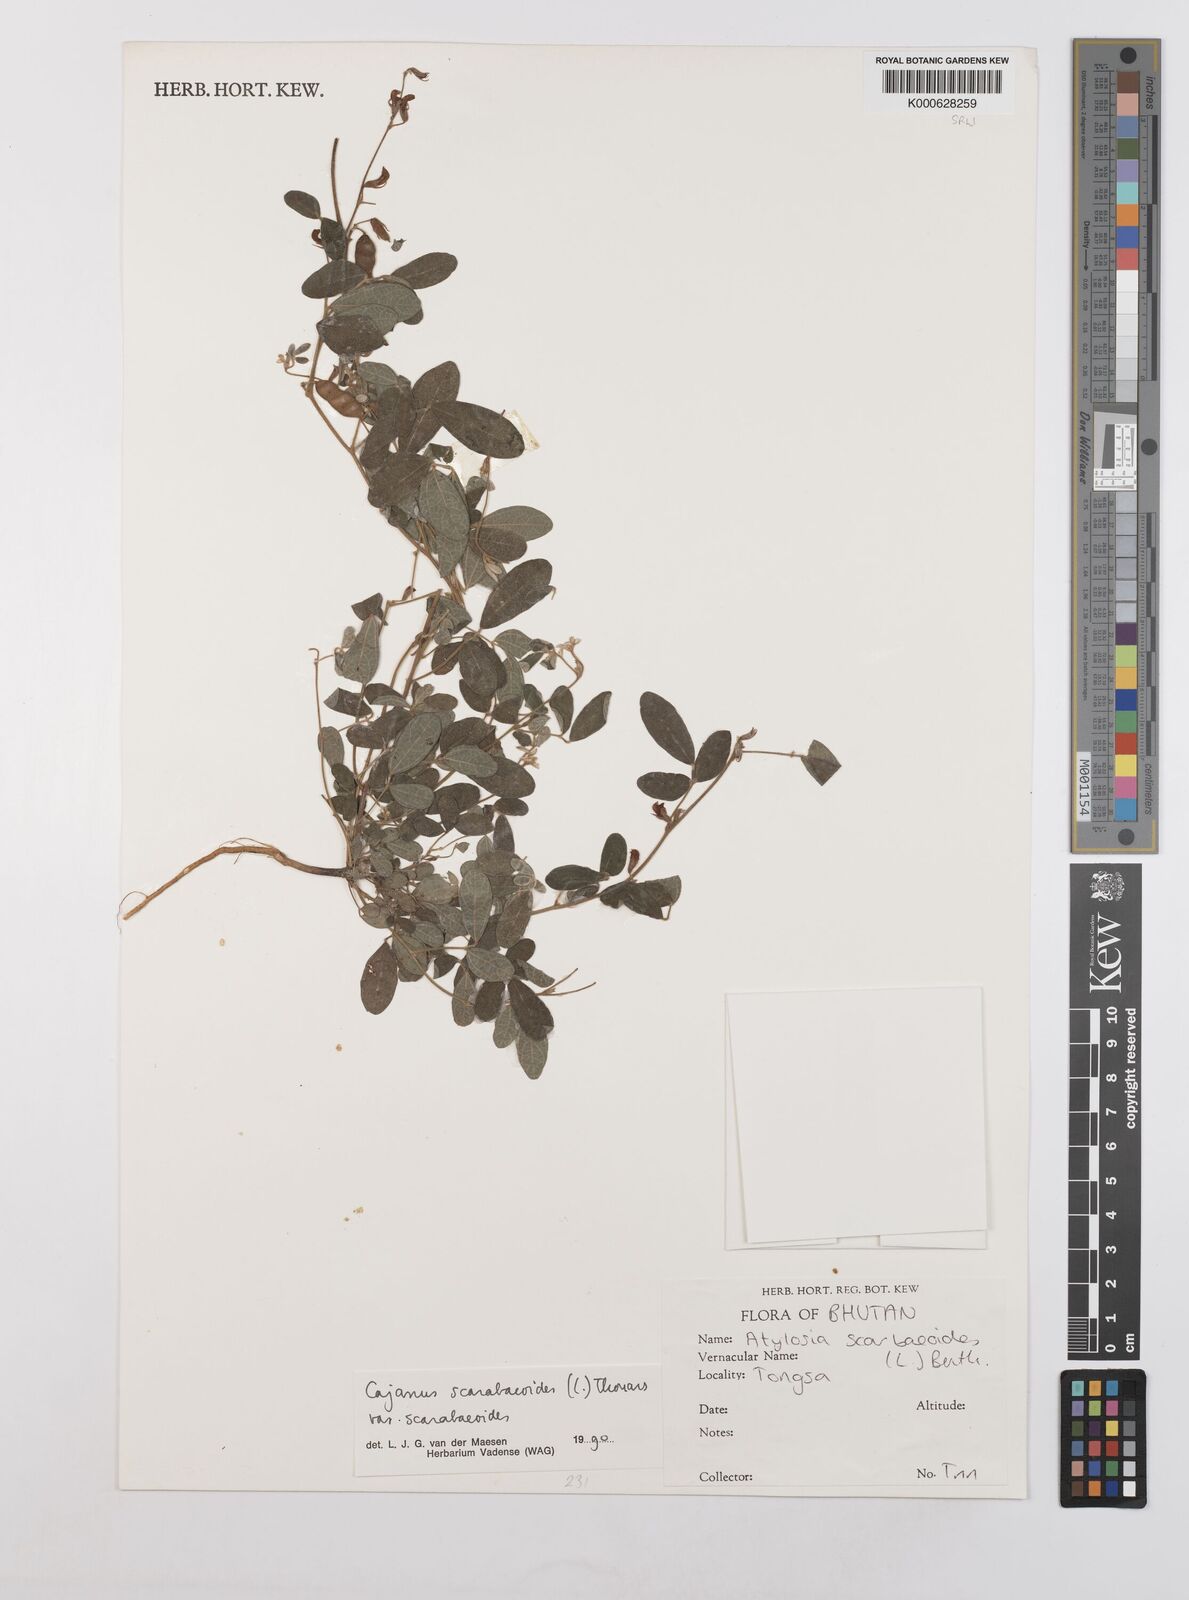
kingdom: Plantae
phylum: Tracheophyta
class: Magnoliopsida
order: Fabales
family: Fabaceae
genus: Cajanus
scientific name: Cajanus
